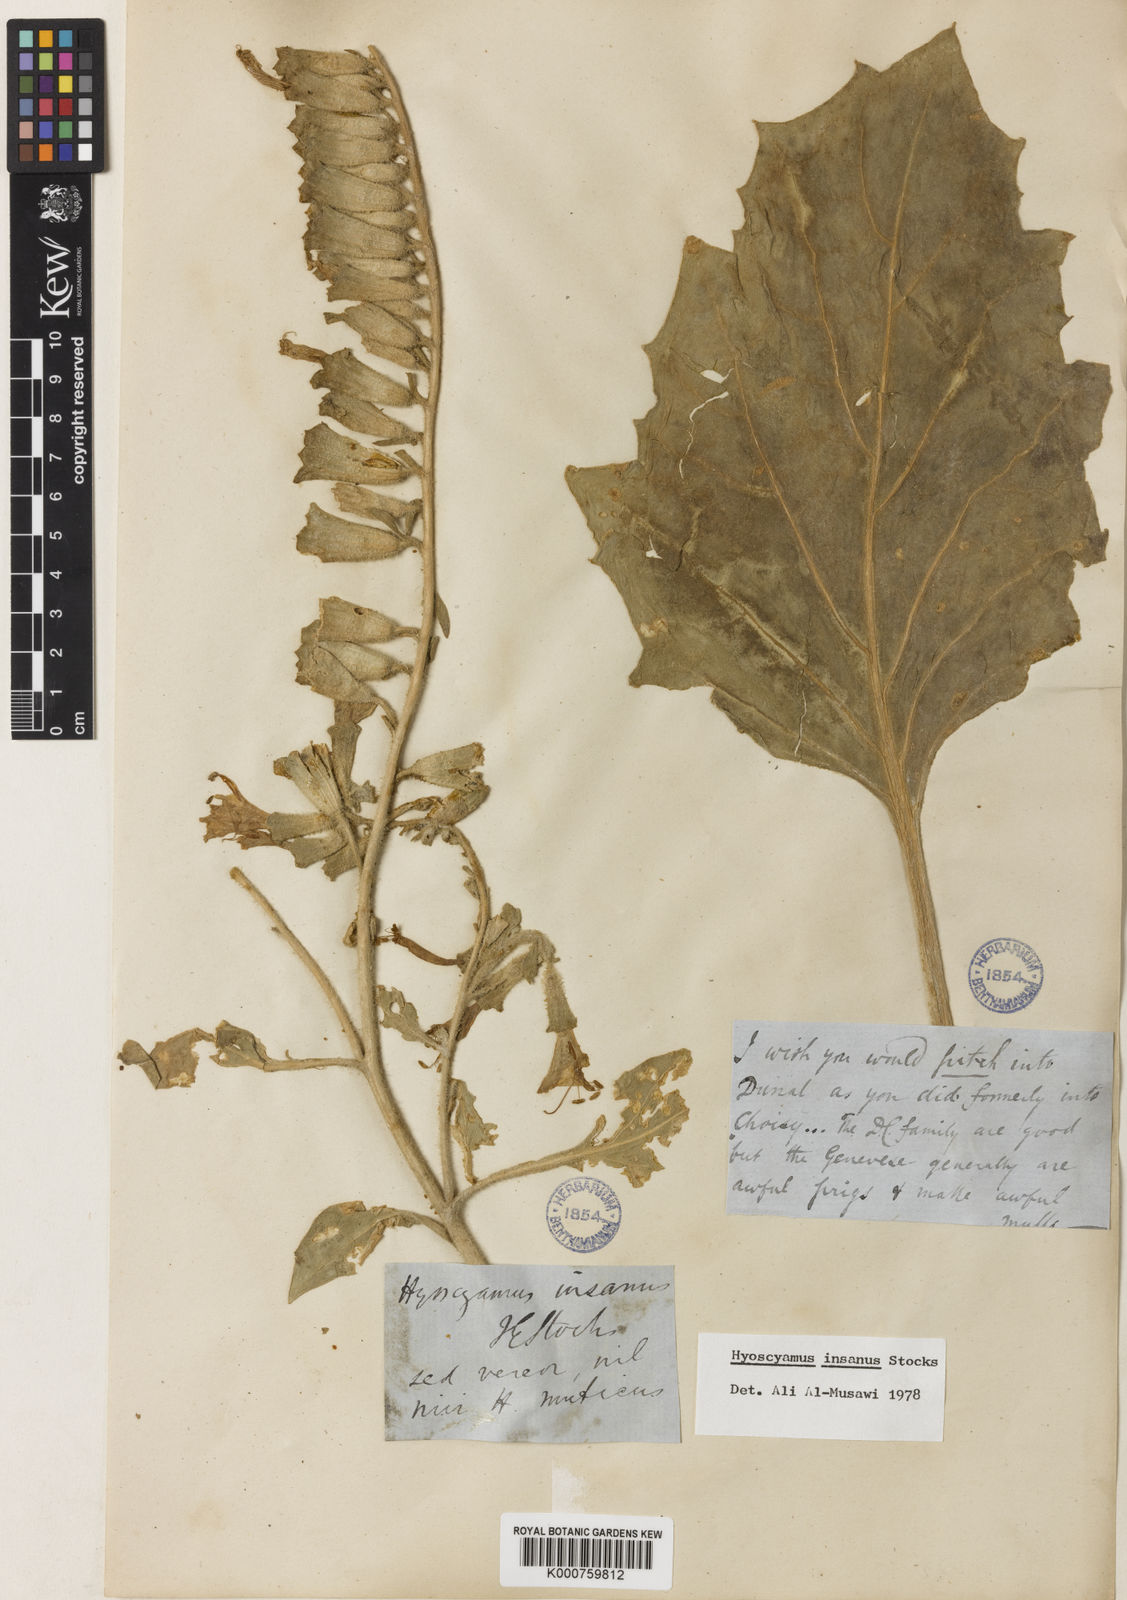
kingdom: Plantae
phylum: Tracheophyta
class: Magnoliopsida
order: Solanales
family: Solanaceae
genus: Hyoscyamus
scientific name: Hyoscyamus insanus
